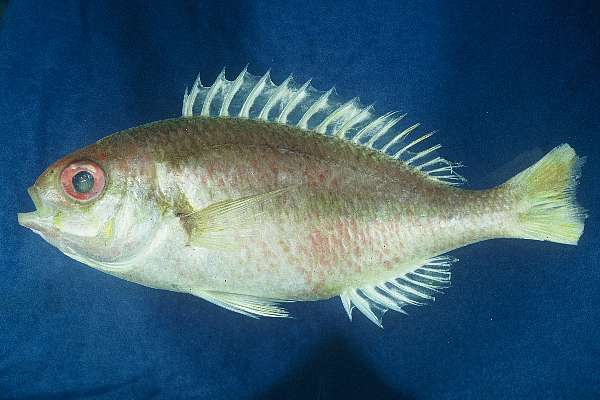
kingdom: Animalia
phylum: Chordata
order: Perciformes
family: Nemipteridae
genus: Parascolopsis
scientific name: Parascolopsis eriomma
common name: Rosy dwarf monocle bream
